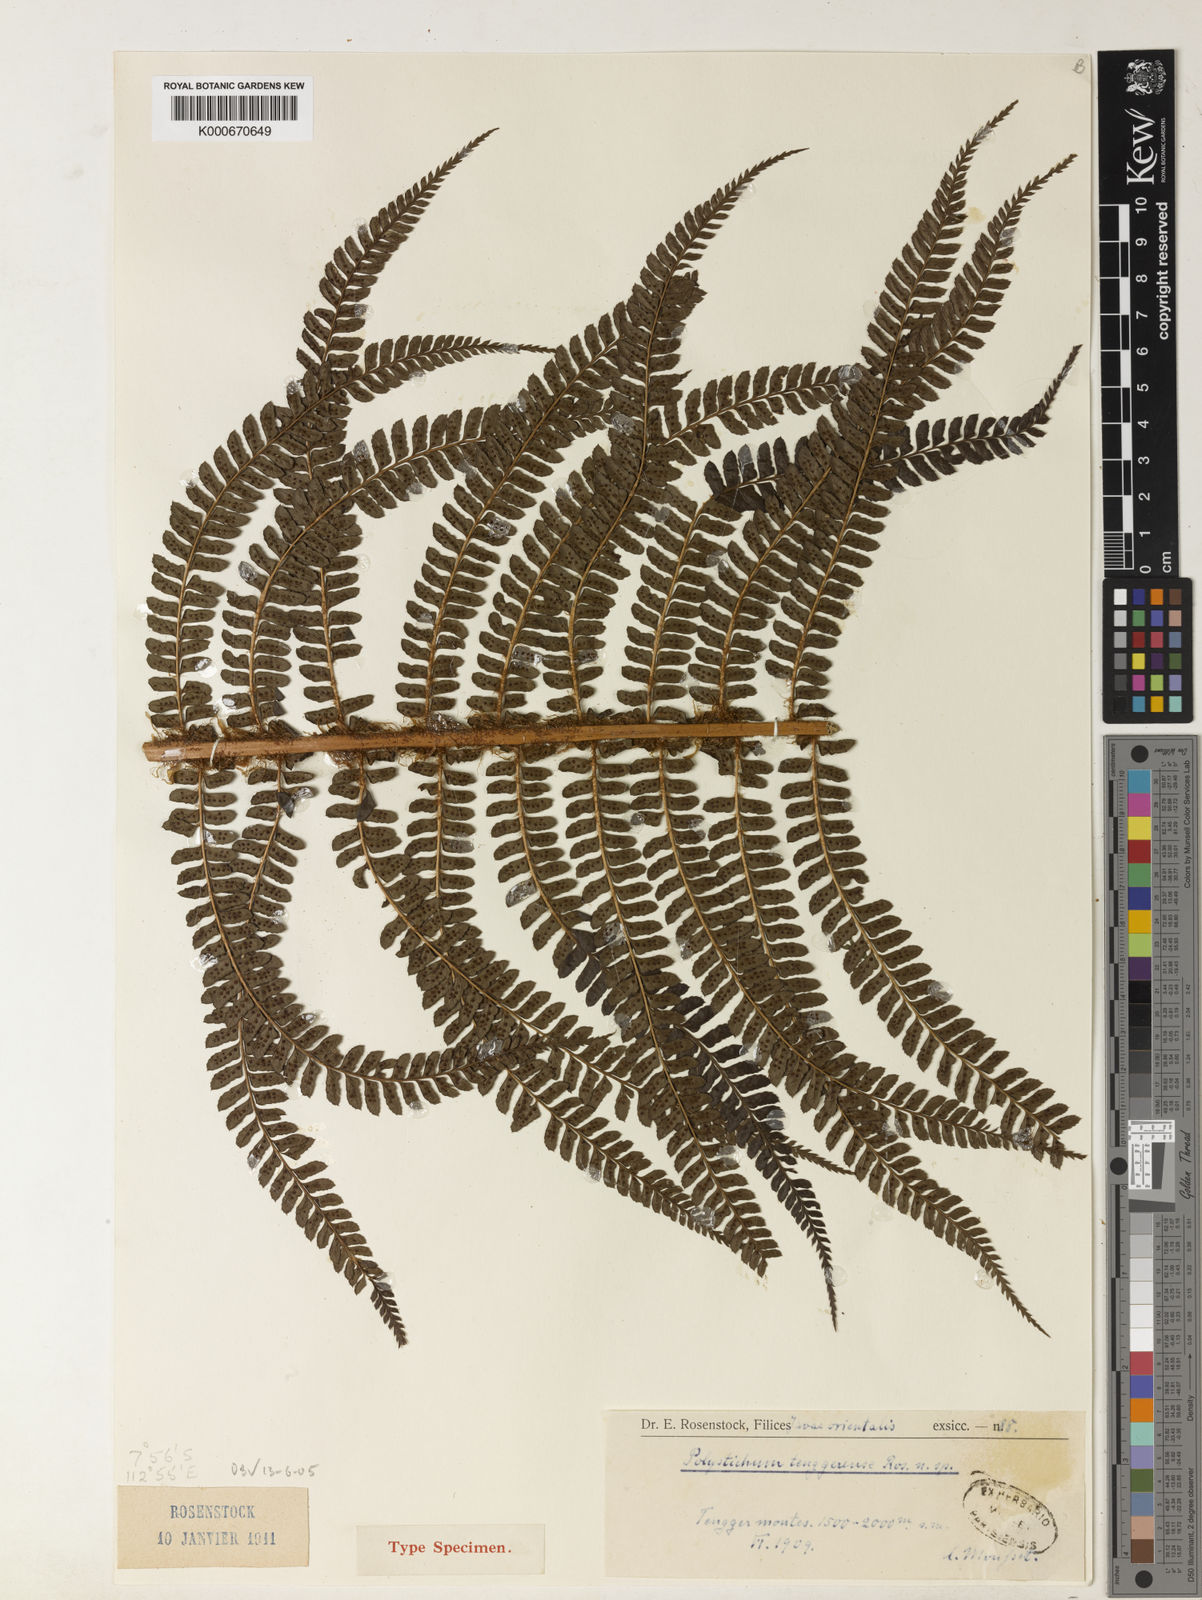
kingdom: Plantae
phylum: Tracheophyta
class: Polypodiopsida
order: Polypodiales
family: Dryopteridaceae
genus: Polystichum
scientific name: Polystichum mucronifolium
